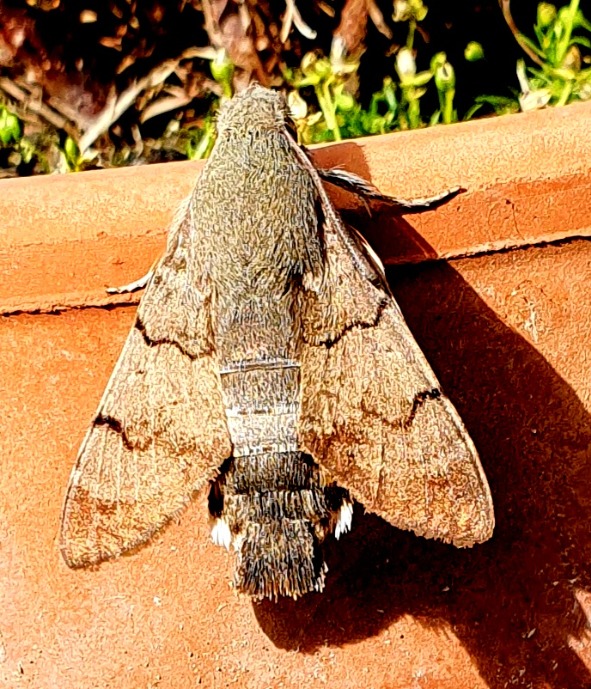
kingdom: Animalia
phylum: Arthropoda
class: Insecta
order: Lepidoptera
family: Sphingidae
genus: Macroglossum
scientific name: Macroglossum stellatarum
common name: Duehale
